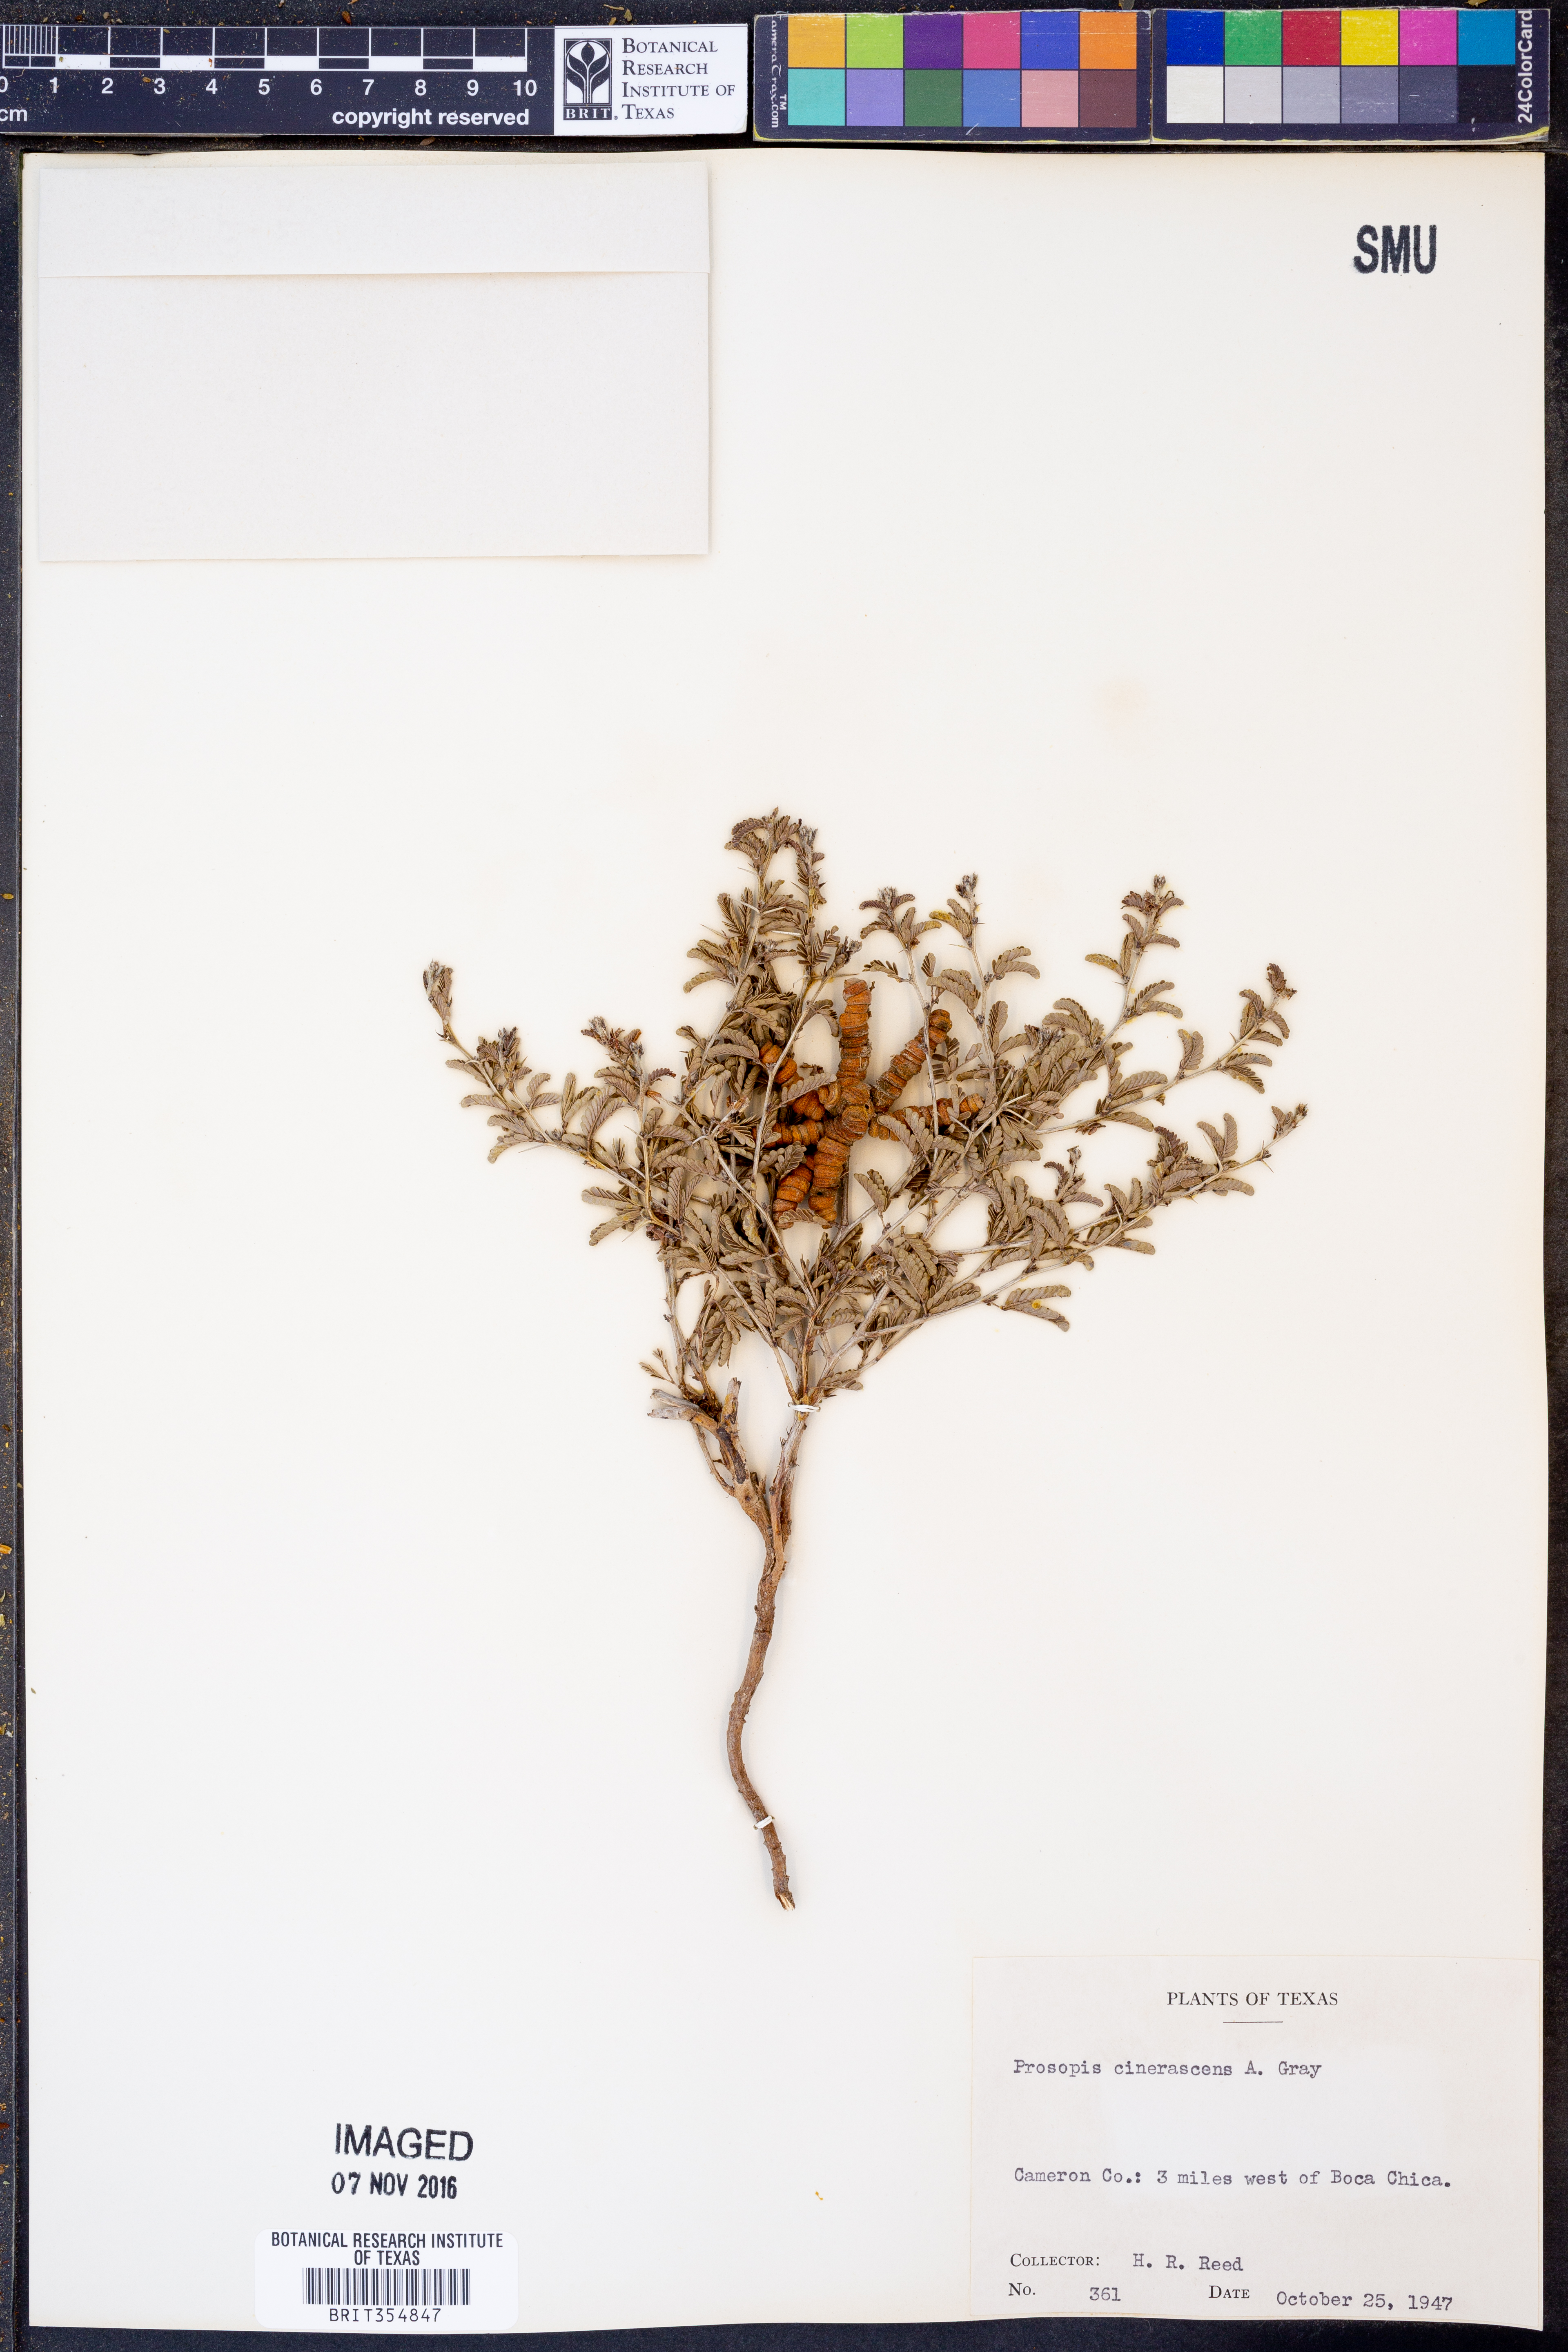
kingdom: Plantae
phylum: Tracheophyta
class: Magnoliopsida
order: Fabales
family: Fabaceae
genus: Prosopis
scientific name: Prosopis cinerascens
